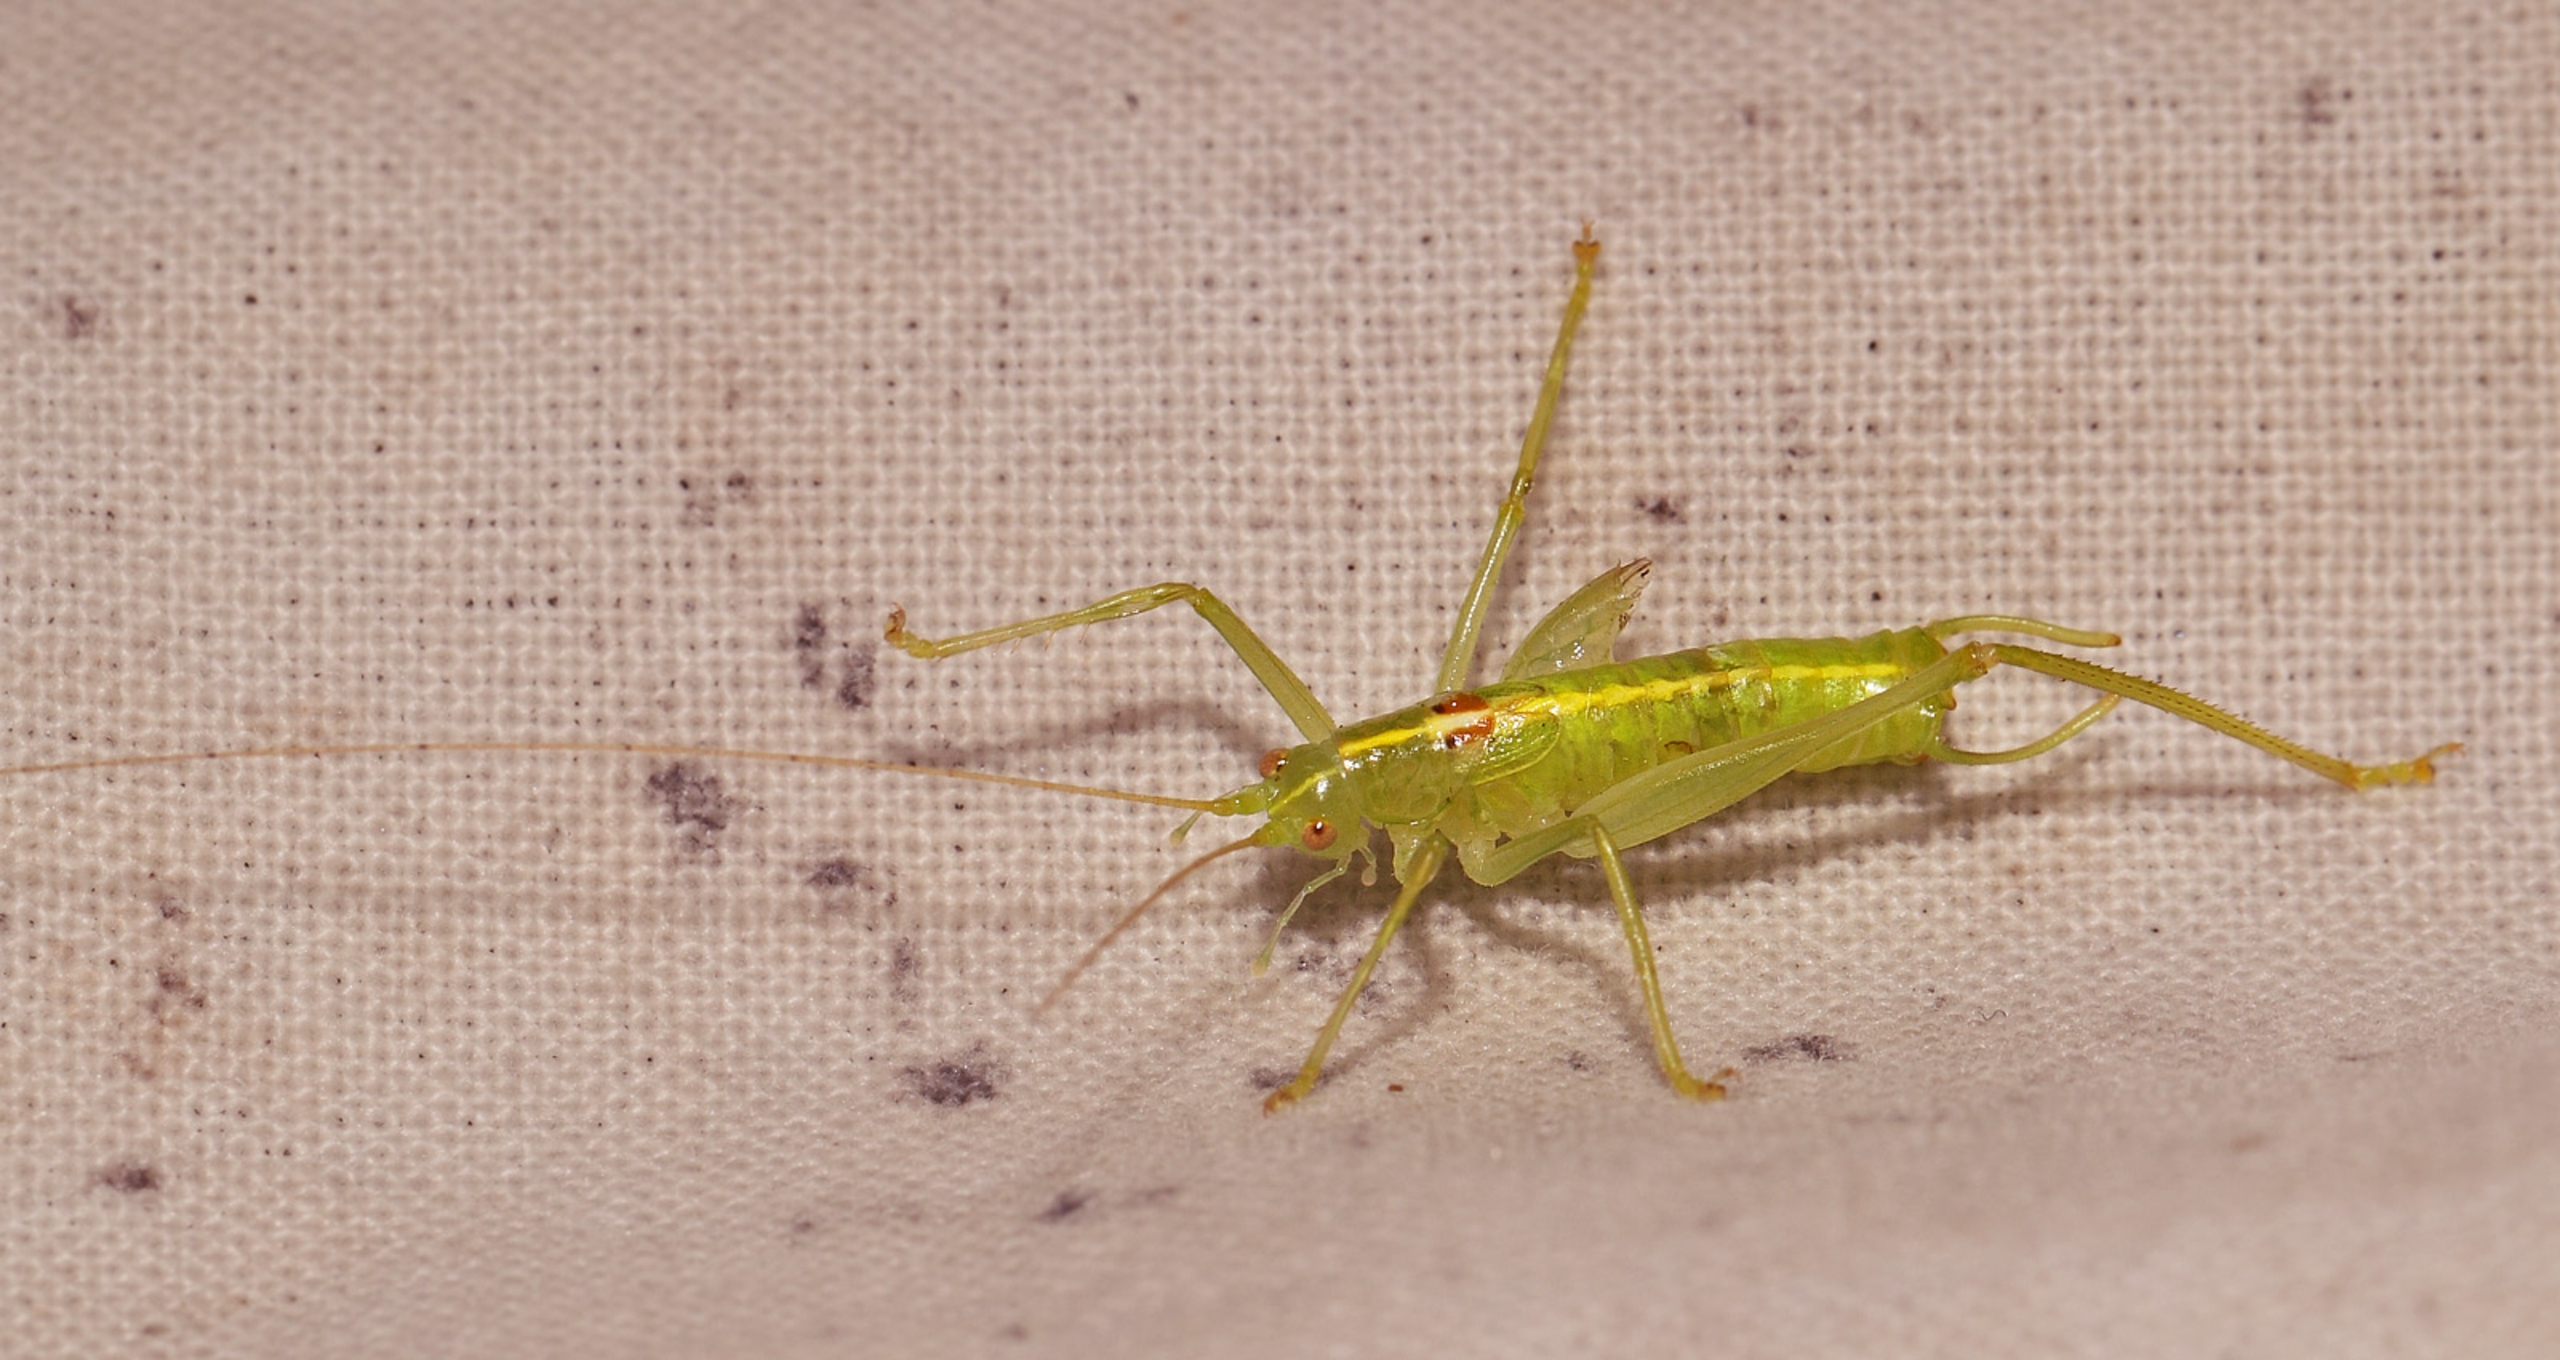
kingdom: Animalia
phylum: Arthropoda
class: Insecta
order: Orthoptera
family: Tettigoniidae
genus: Meconema
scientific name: Meconema meridionale
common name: Kortvinget egegræshoppe
